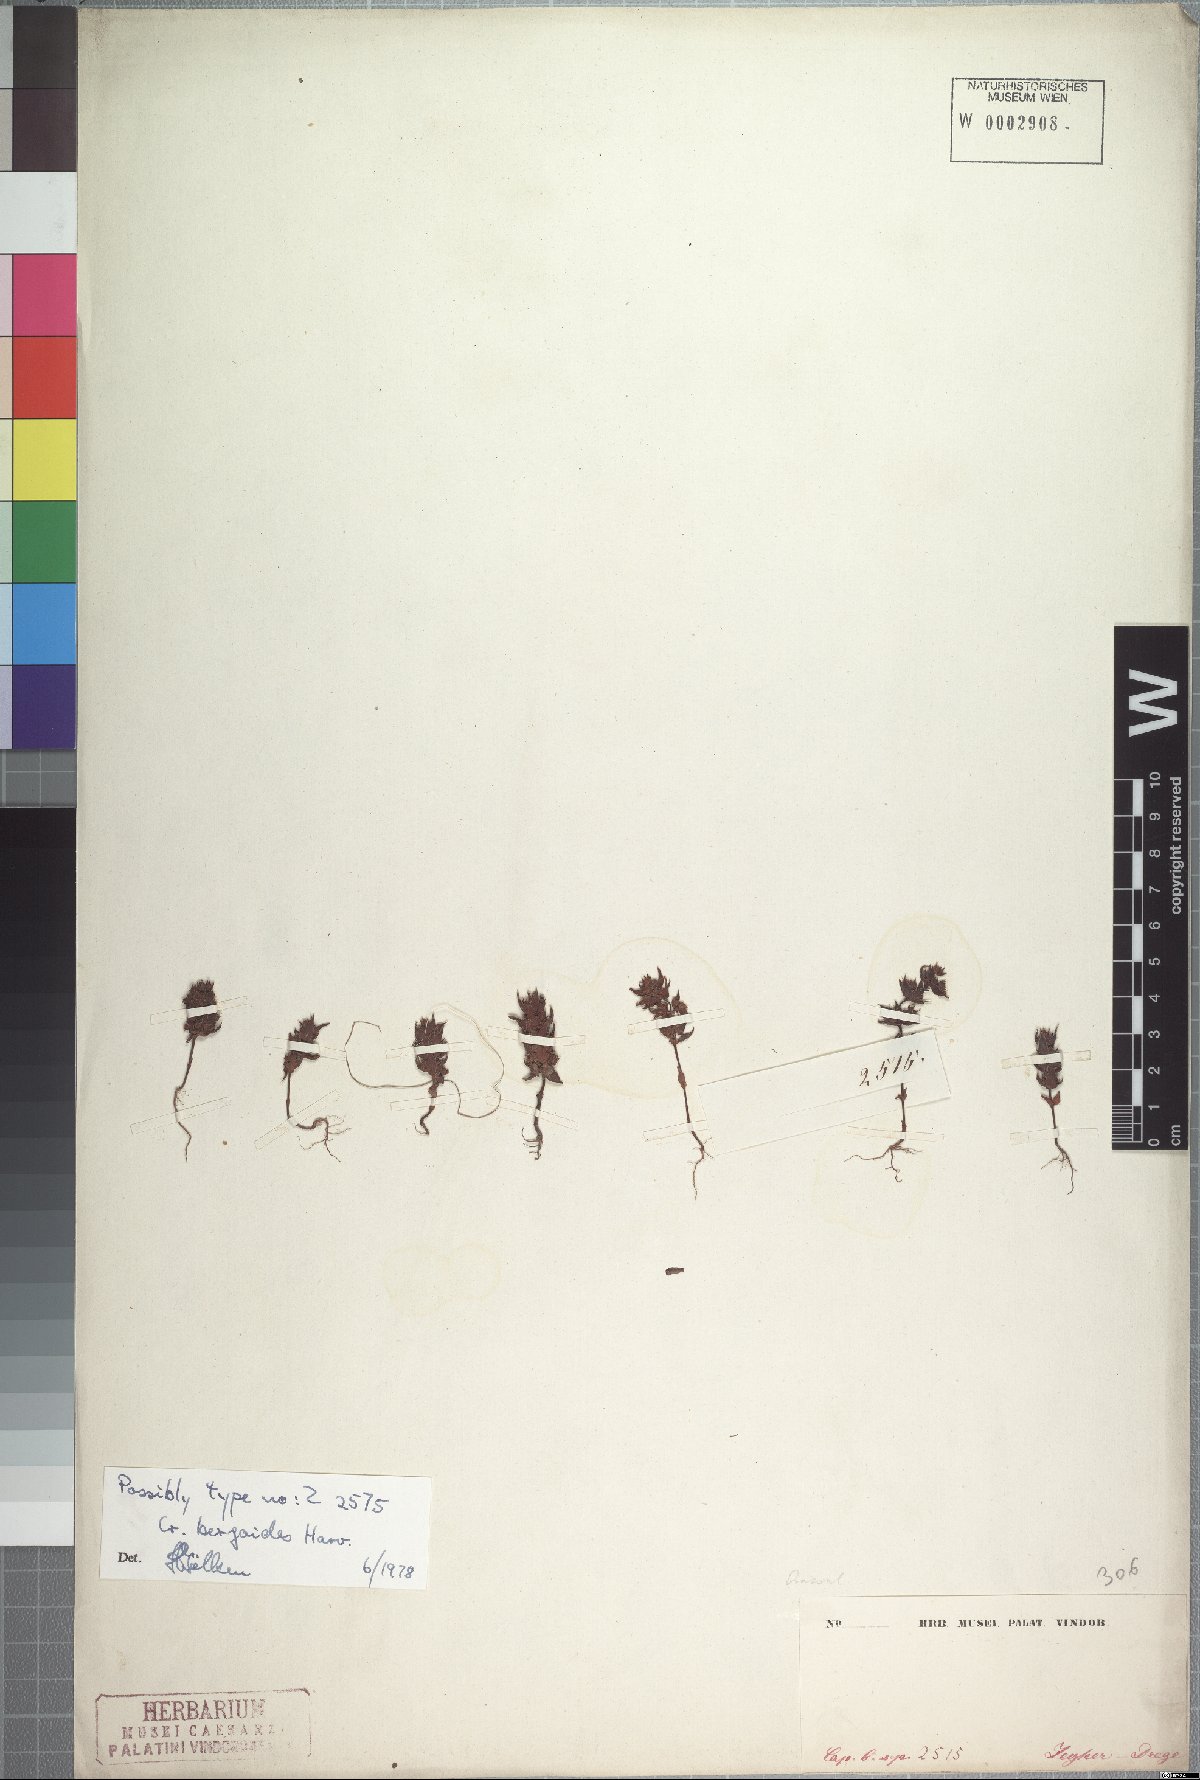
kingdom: Plantae
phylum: Tracheophyta
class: Magnoliopsida
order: Saxifragales
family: Crassulaceae
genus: Crassula
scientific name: Crassula bergioides
